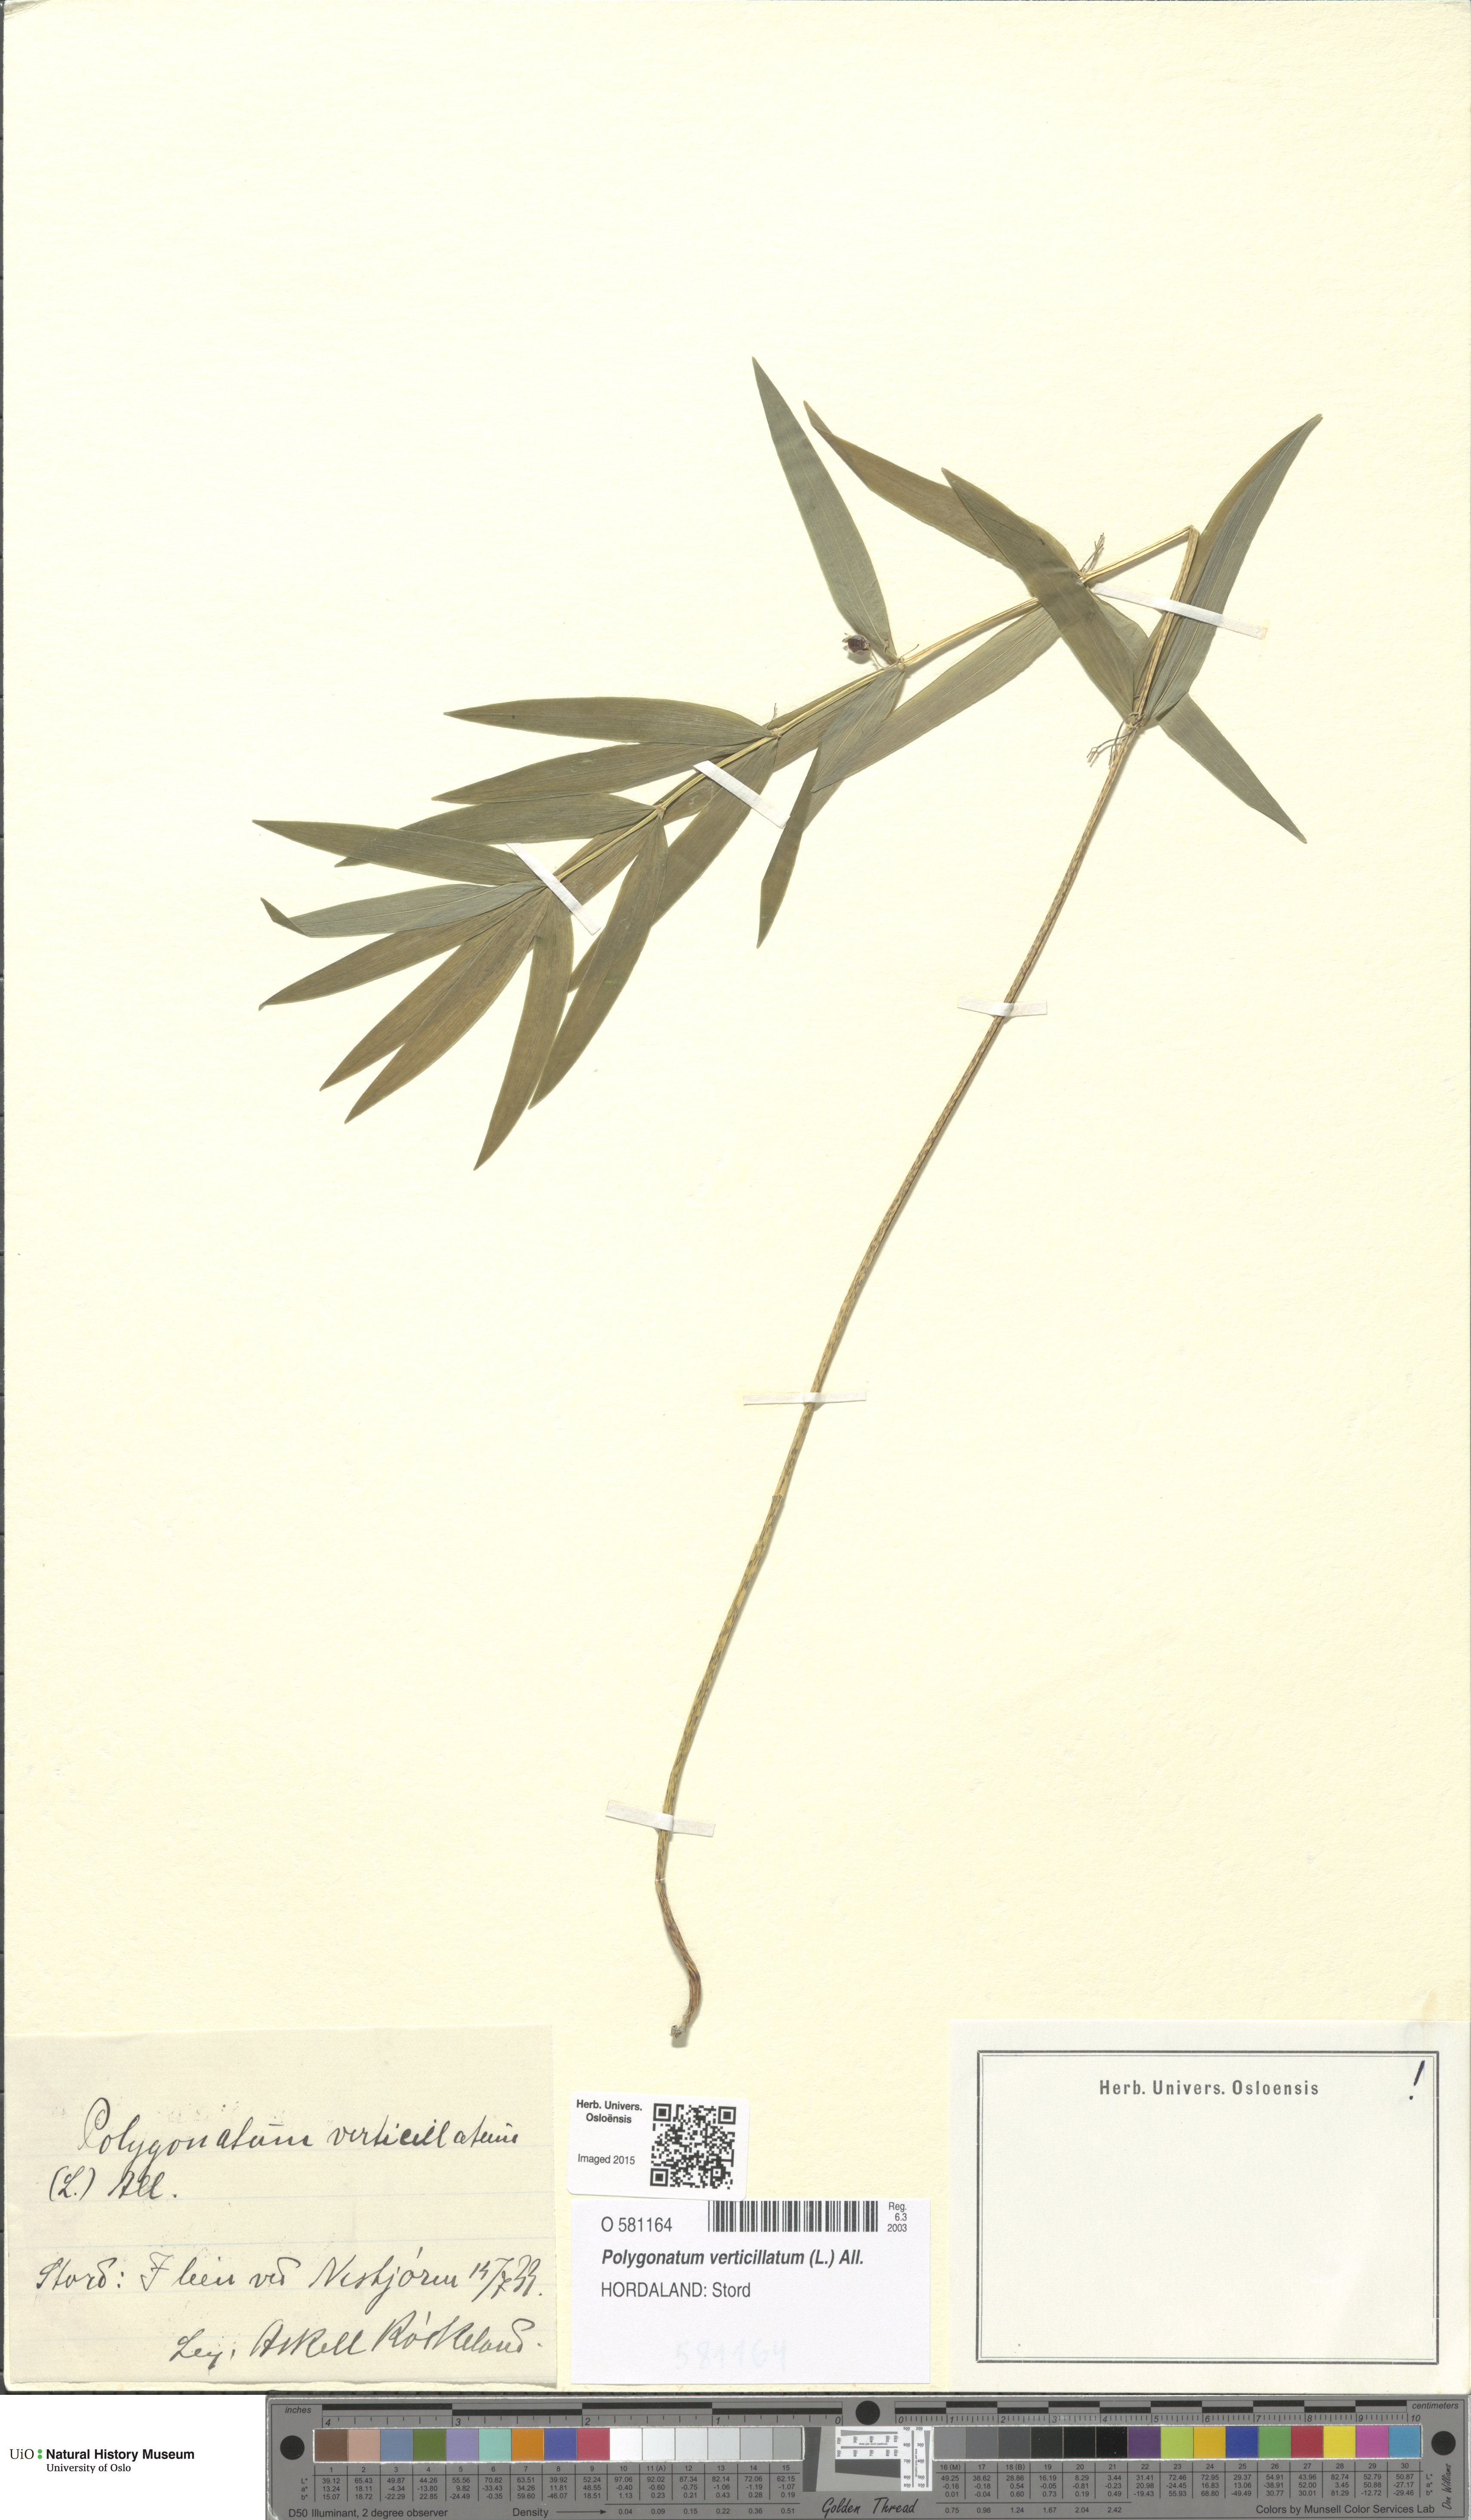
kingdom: Plantae
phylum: Tracheophyta
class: Liliopsida
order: Asparagales
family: Asparagaceae
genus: Polygonatum
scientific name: Polygonatum verticillatum
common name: Whorled solomon's-seal
